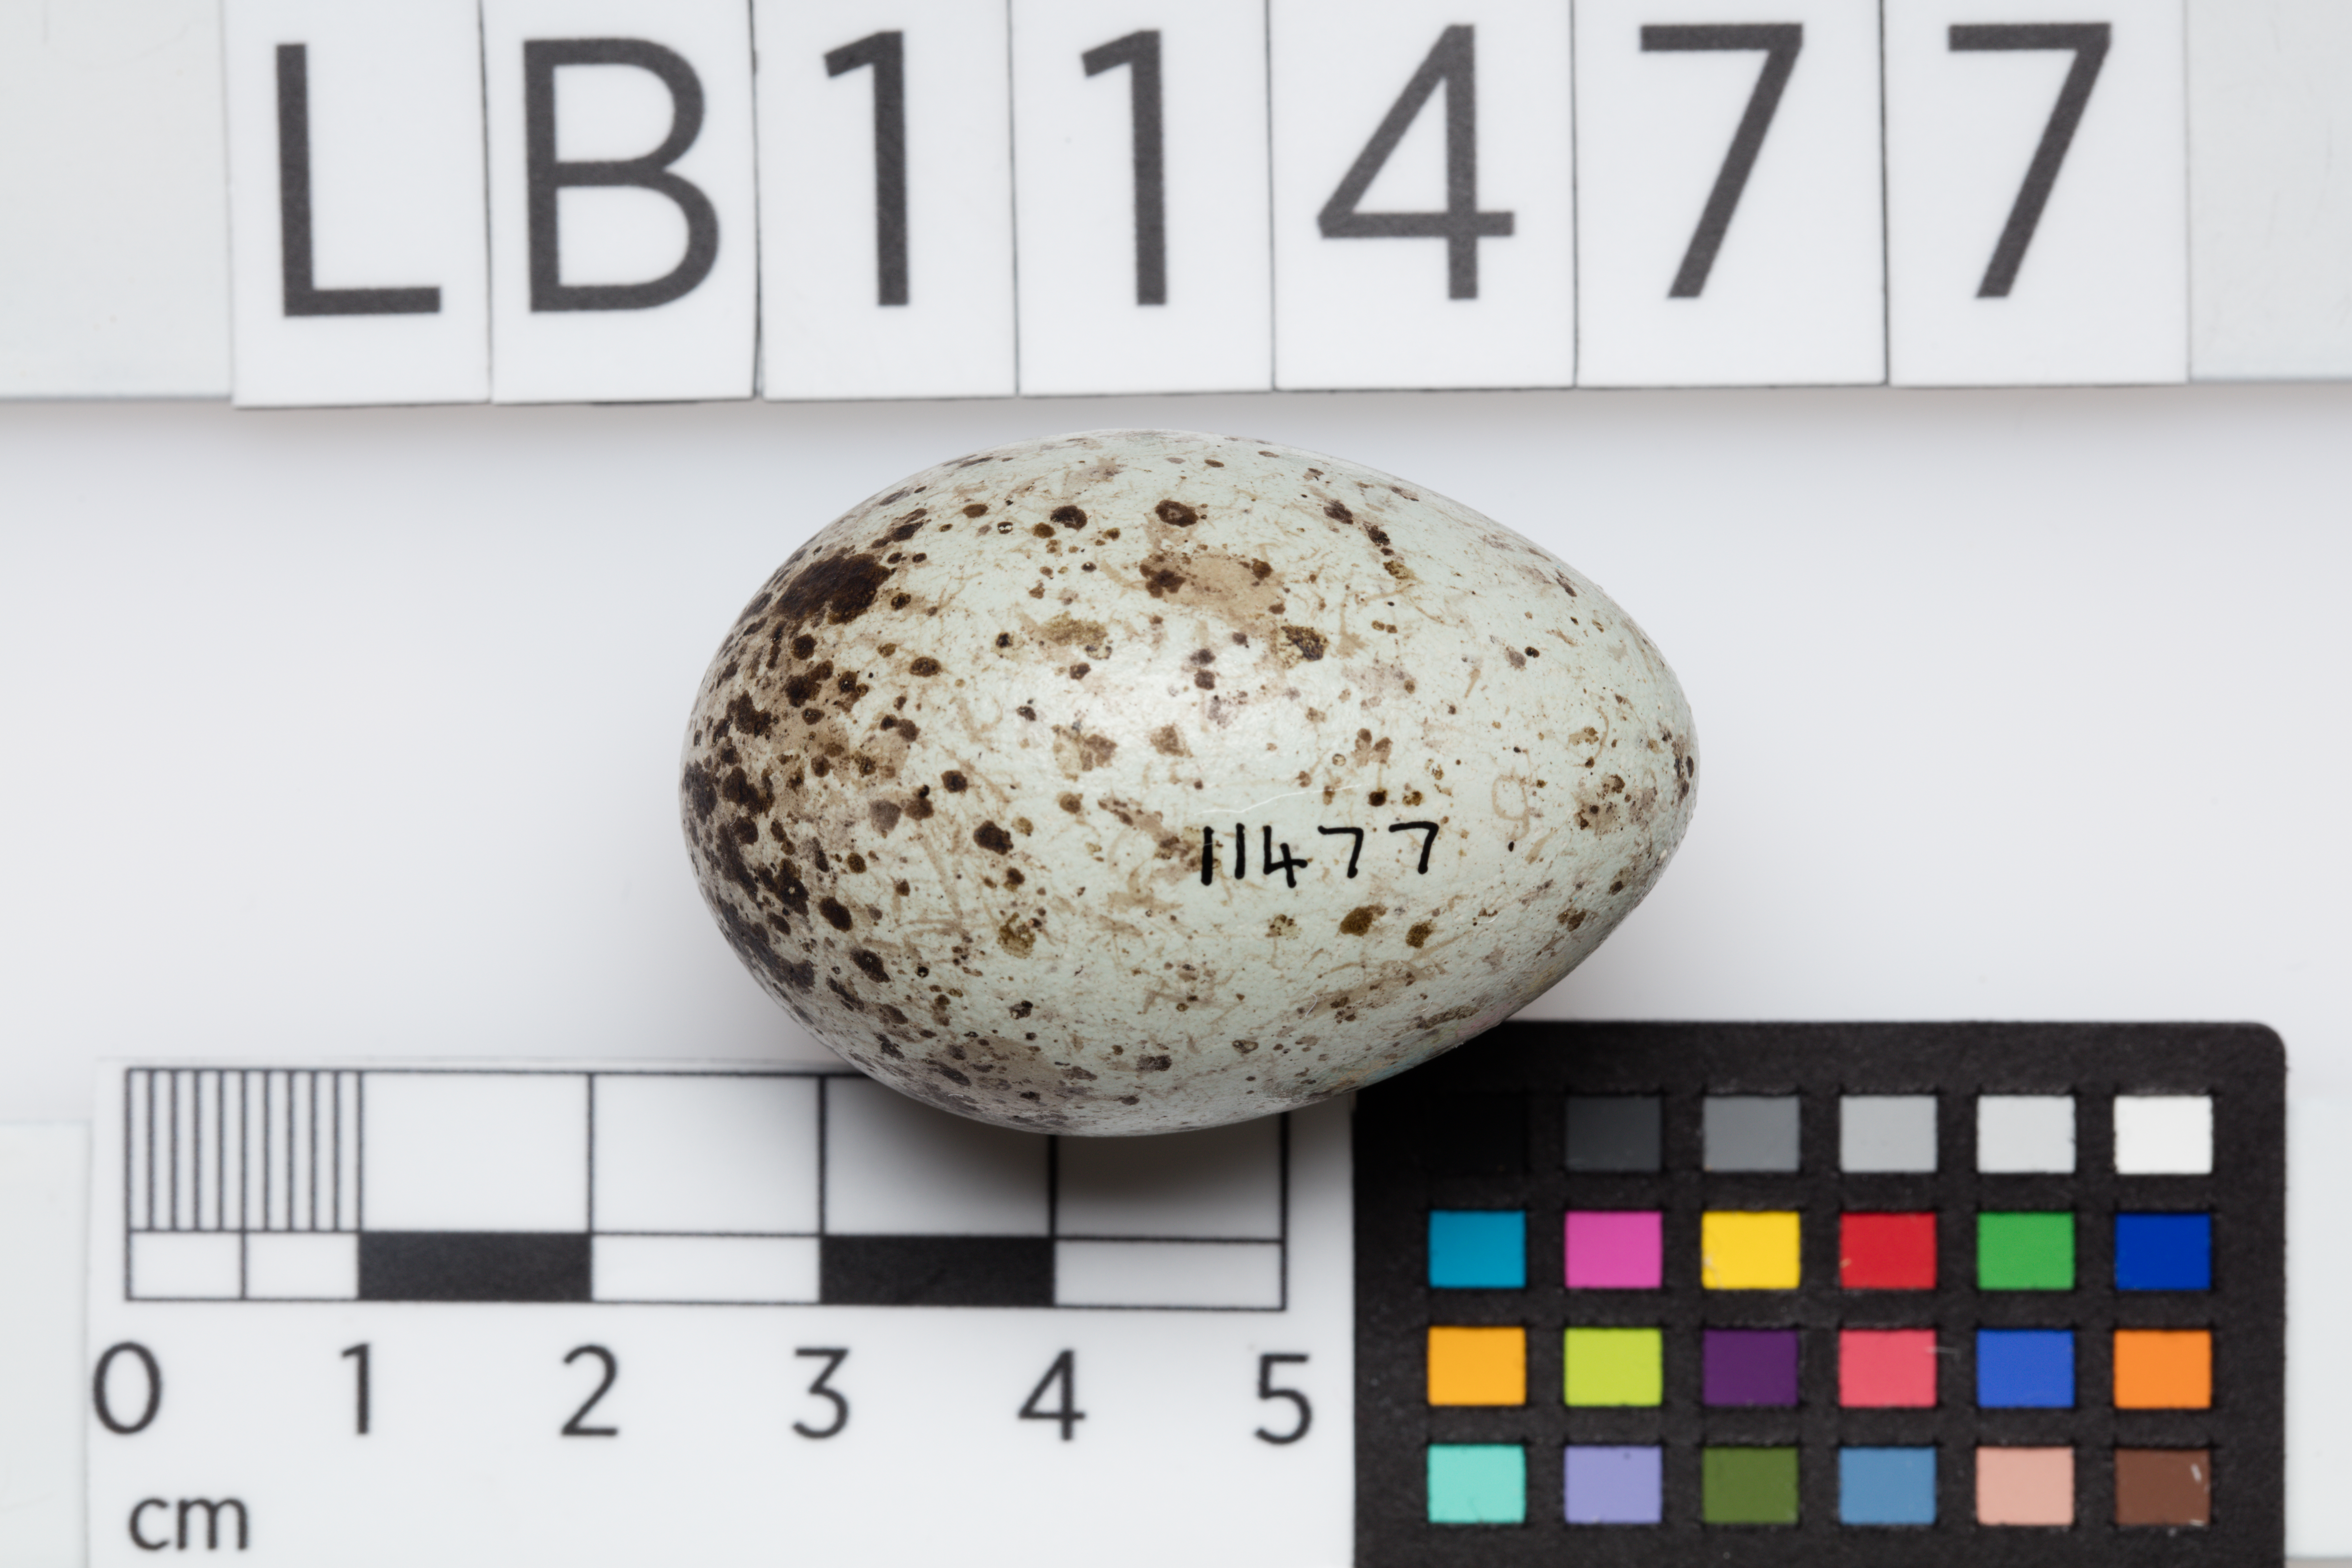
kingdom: Animalia
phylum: Chordata
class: Aves
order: Passeriformes
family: Corvidae
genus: Corvus
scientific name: Corvus coronoides
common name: Australian raven
